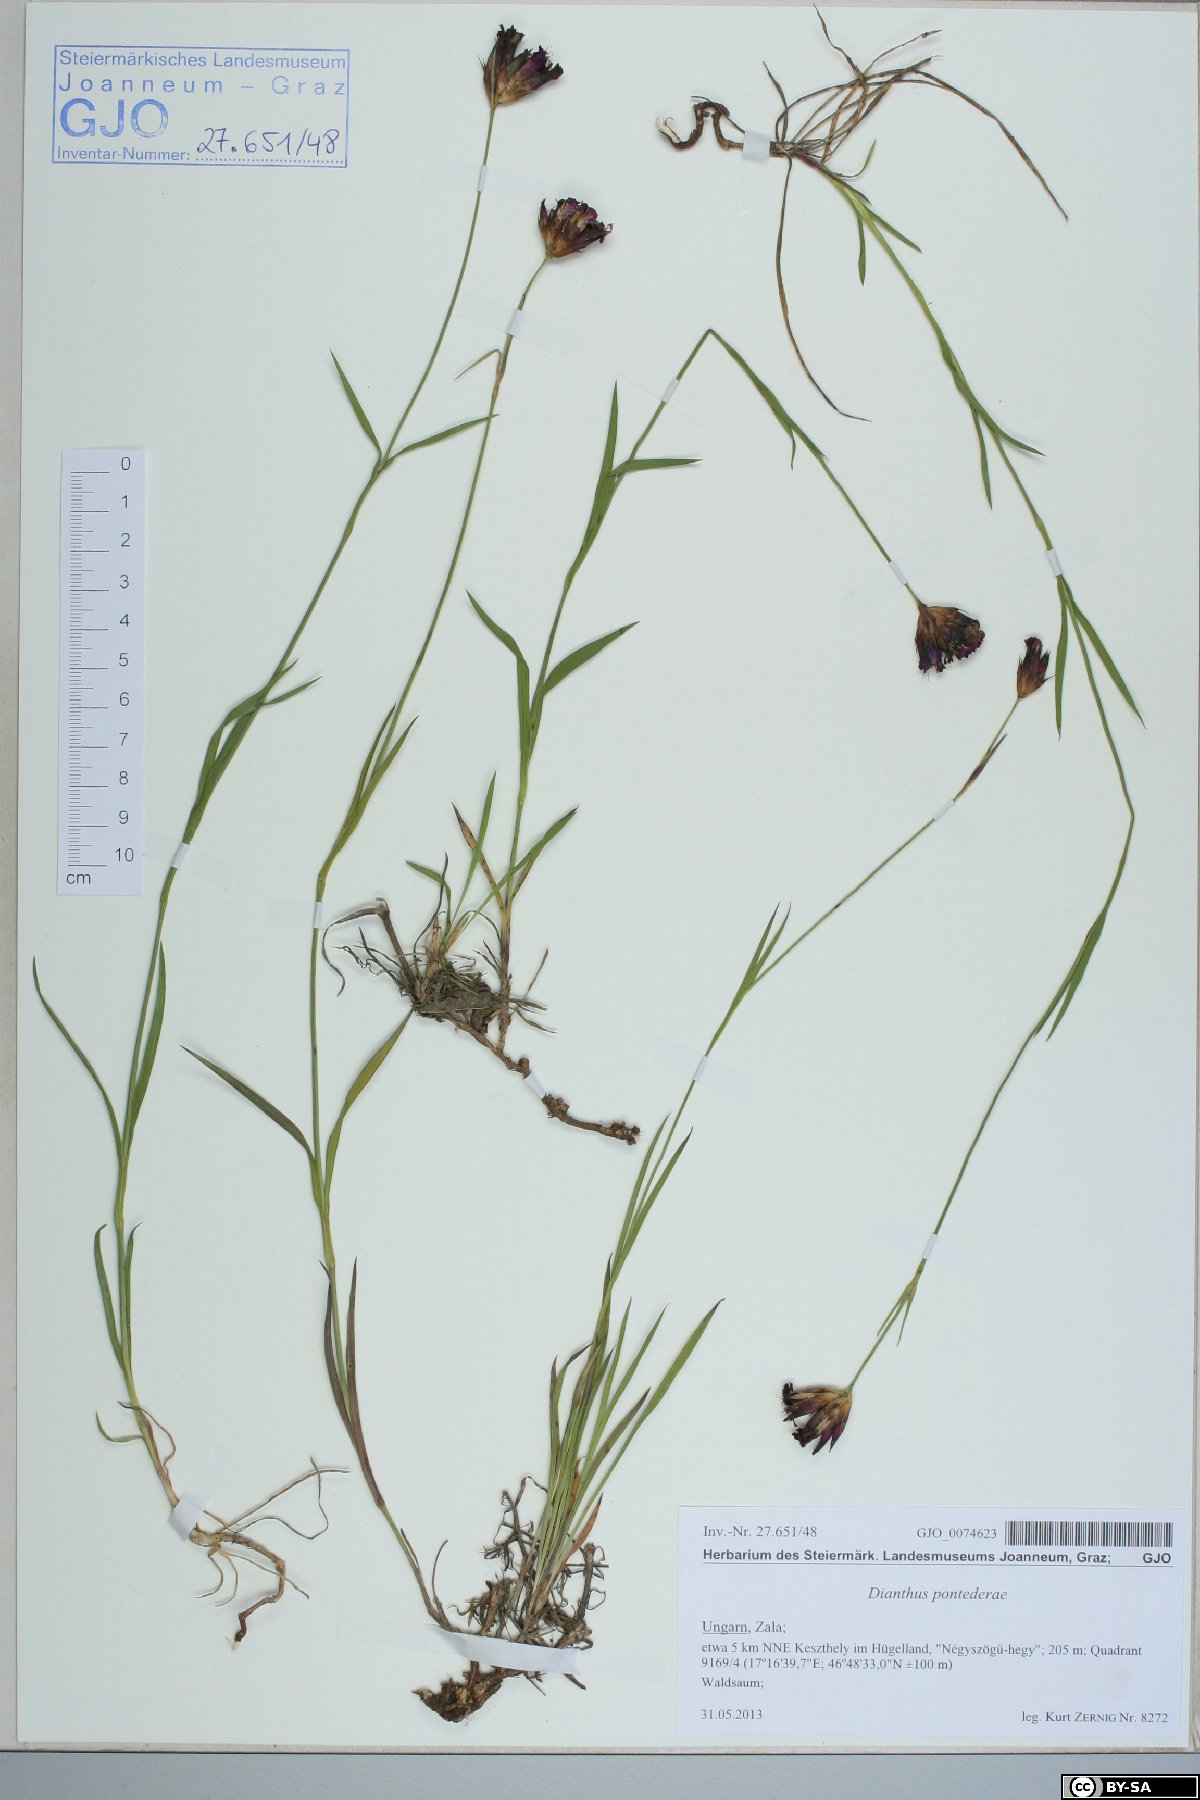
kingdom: Plantae
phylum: Tracheophyta
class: Magnoliopsida
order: Caryophyllales
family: Caryophyllaceae
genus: Dianthus
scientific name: Dianthus pontederae
